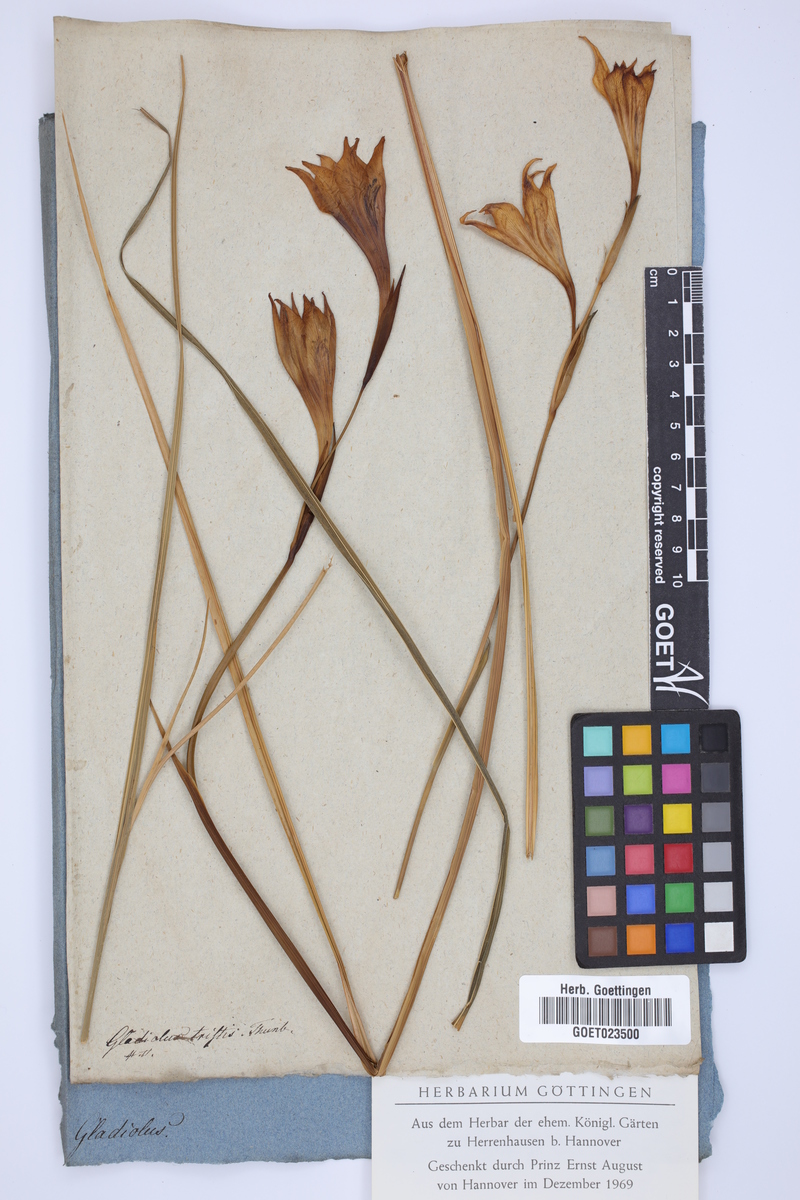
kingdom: Plantae
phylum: Tracheophyta
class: Liliopsida
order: Asparagales
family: Iridaceae
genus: Gladiolus
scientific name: Gladiolus tristis
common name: Ever-flowering gladiolus
